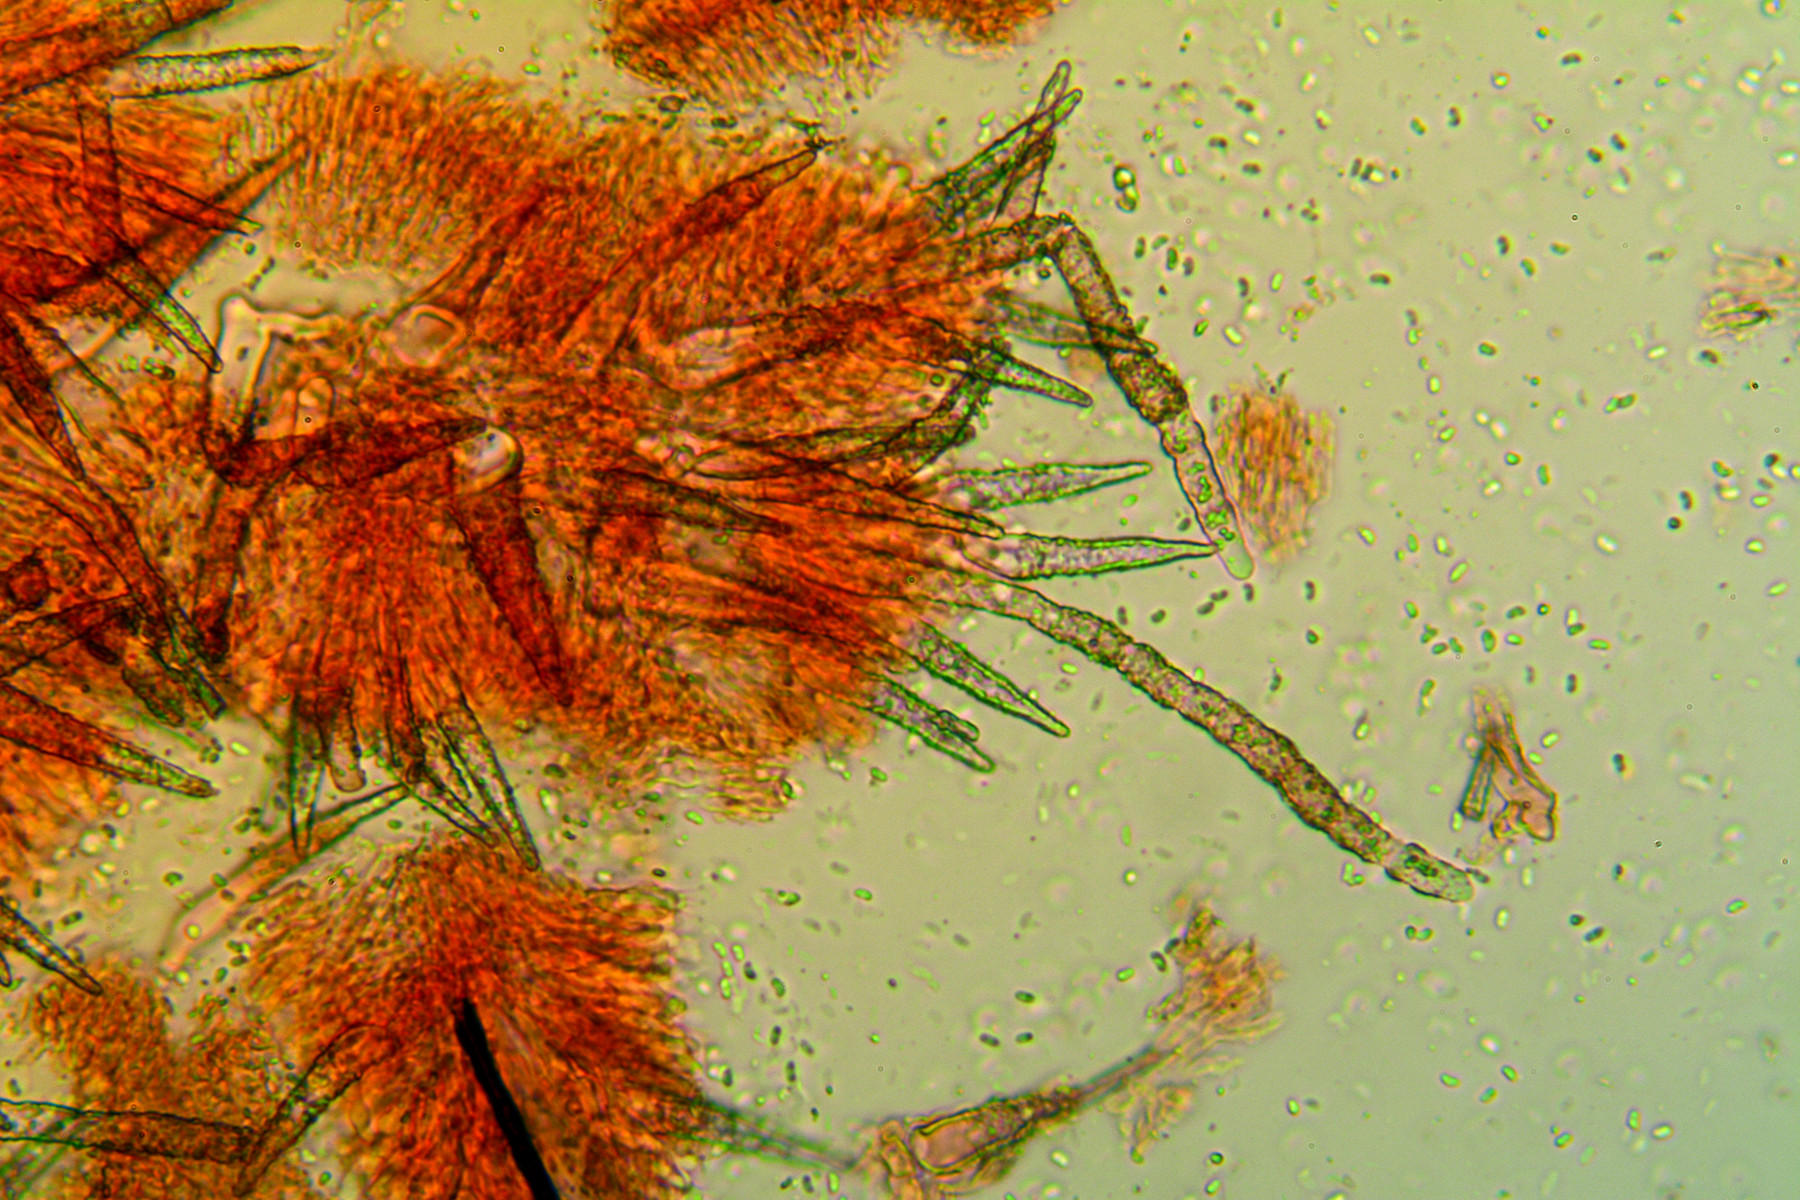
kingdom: Fungi
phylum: Basidiomycota
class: Agaricomycetes
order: Polyporales
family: Meruliaceae
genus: Scopuloides
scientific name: Scopuloides rimosa
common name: dughinde
